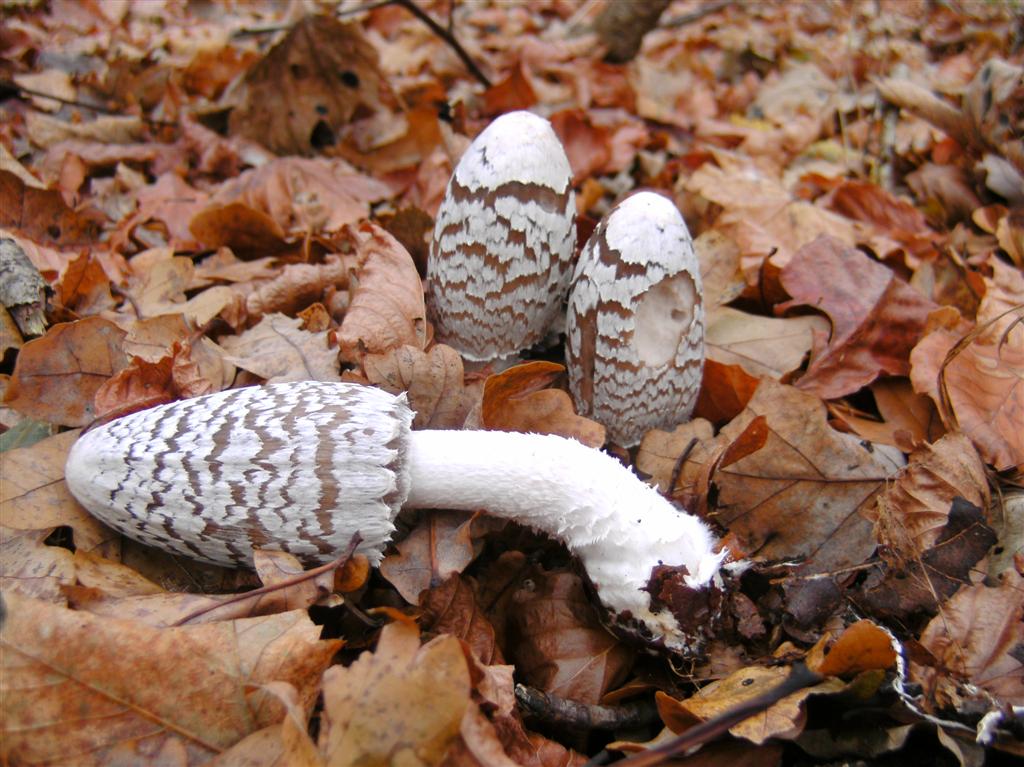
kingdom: Fungi
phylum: Basidiomycota
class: Agaricomycetes
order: Agaricales
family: Psathyrellaceae
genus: Coprinopsis
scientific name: Coprinopsis picacea
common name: skade-blækhat
